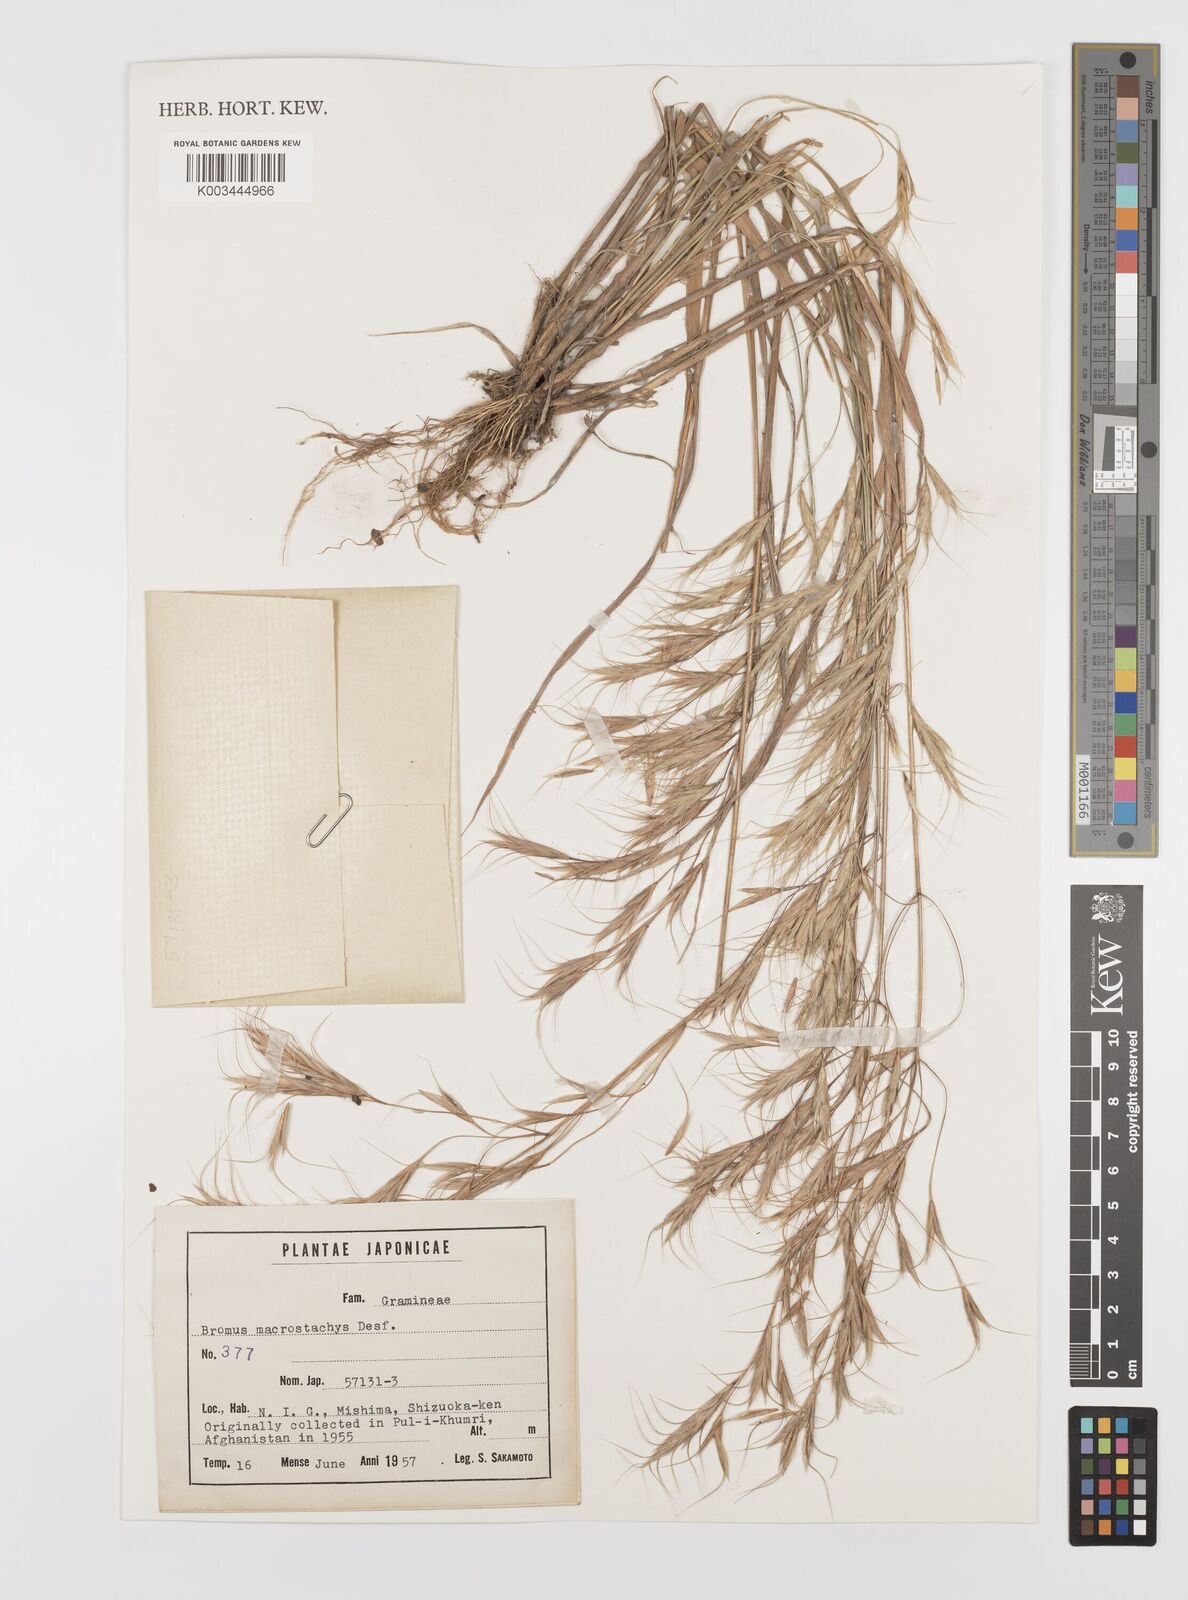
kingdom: Plantae
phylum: Tracheophyta
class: Liliopsida
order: Poales
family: Poaceae
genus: Bromus
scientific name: Bromus lanceolatus
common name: Mediterranean brome
